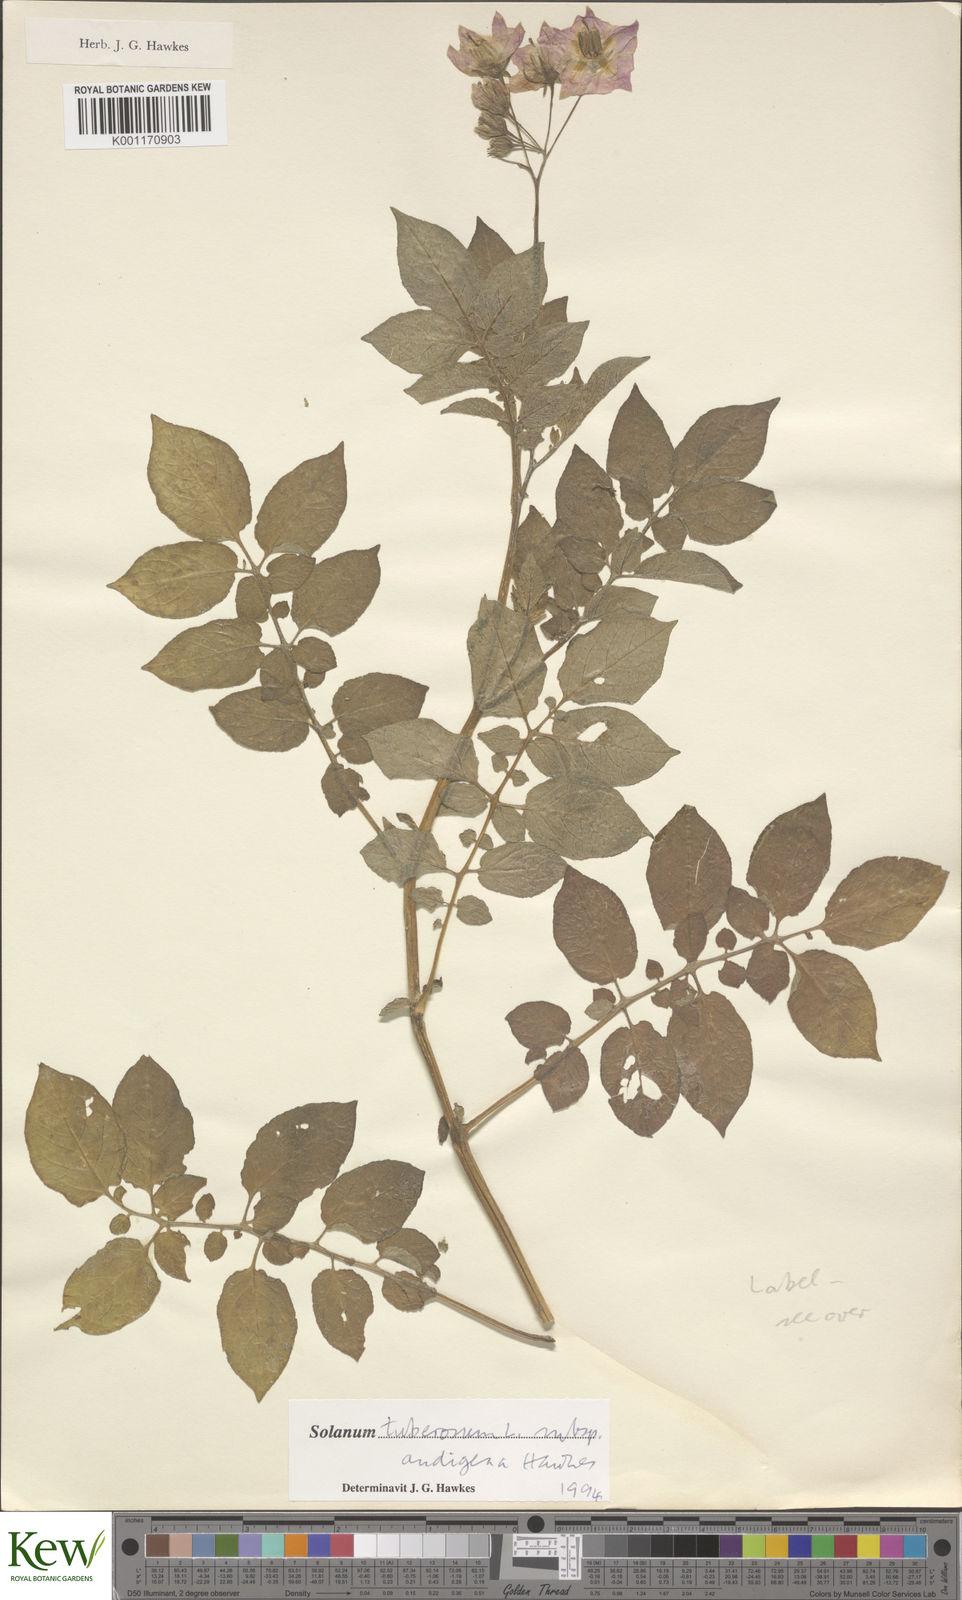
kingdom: Plantae
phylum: Tracheophyta
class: Magnoliopsida
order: Solanales
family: Solanaceae
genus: Solanum
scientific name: Solanum tuberosum
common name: Potato
